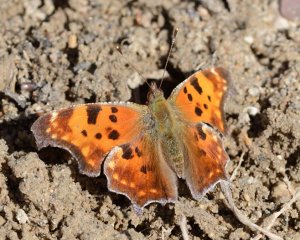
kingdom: Animalia
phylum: Arthropoda
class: Insecta
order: Lepidoptera
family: Nymphalidae
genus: Polygonia
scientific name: Polygonia comma
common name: Eastern Comma
